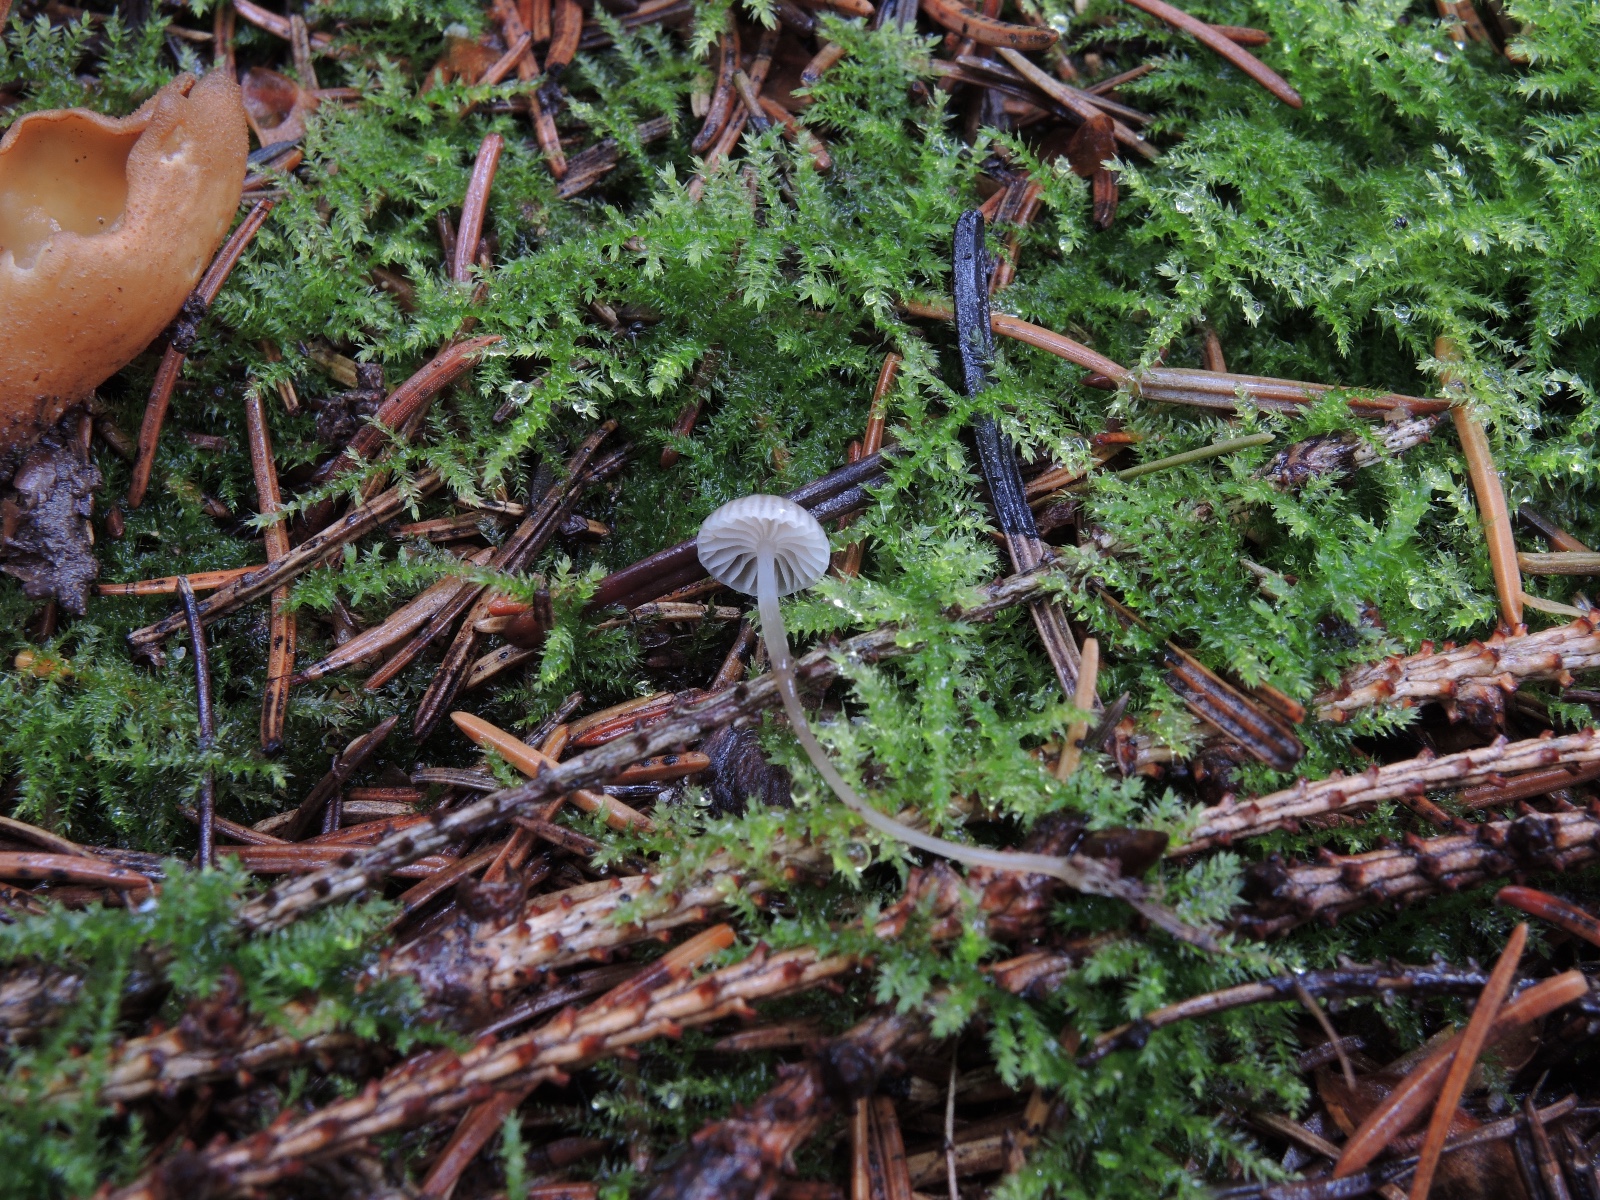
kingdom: Fungi
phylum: Basidiomycota
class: Agaricomycetes
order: Agaricales
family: Mycenaceae
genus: Mycena
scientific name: Mycena vulgaris
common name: klæbrig huesvamp
